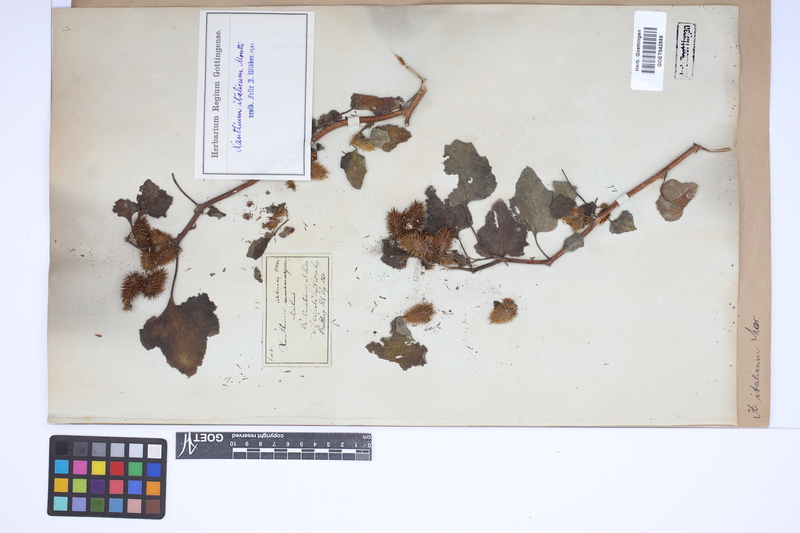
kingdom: Plantae
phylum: Tracheophyta
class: Magnoliopsida
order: Asterales
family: Asteraceae
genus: Xanthium
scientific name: Xanthium orientale
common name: Californian burr
